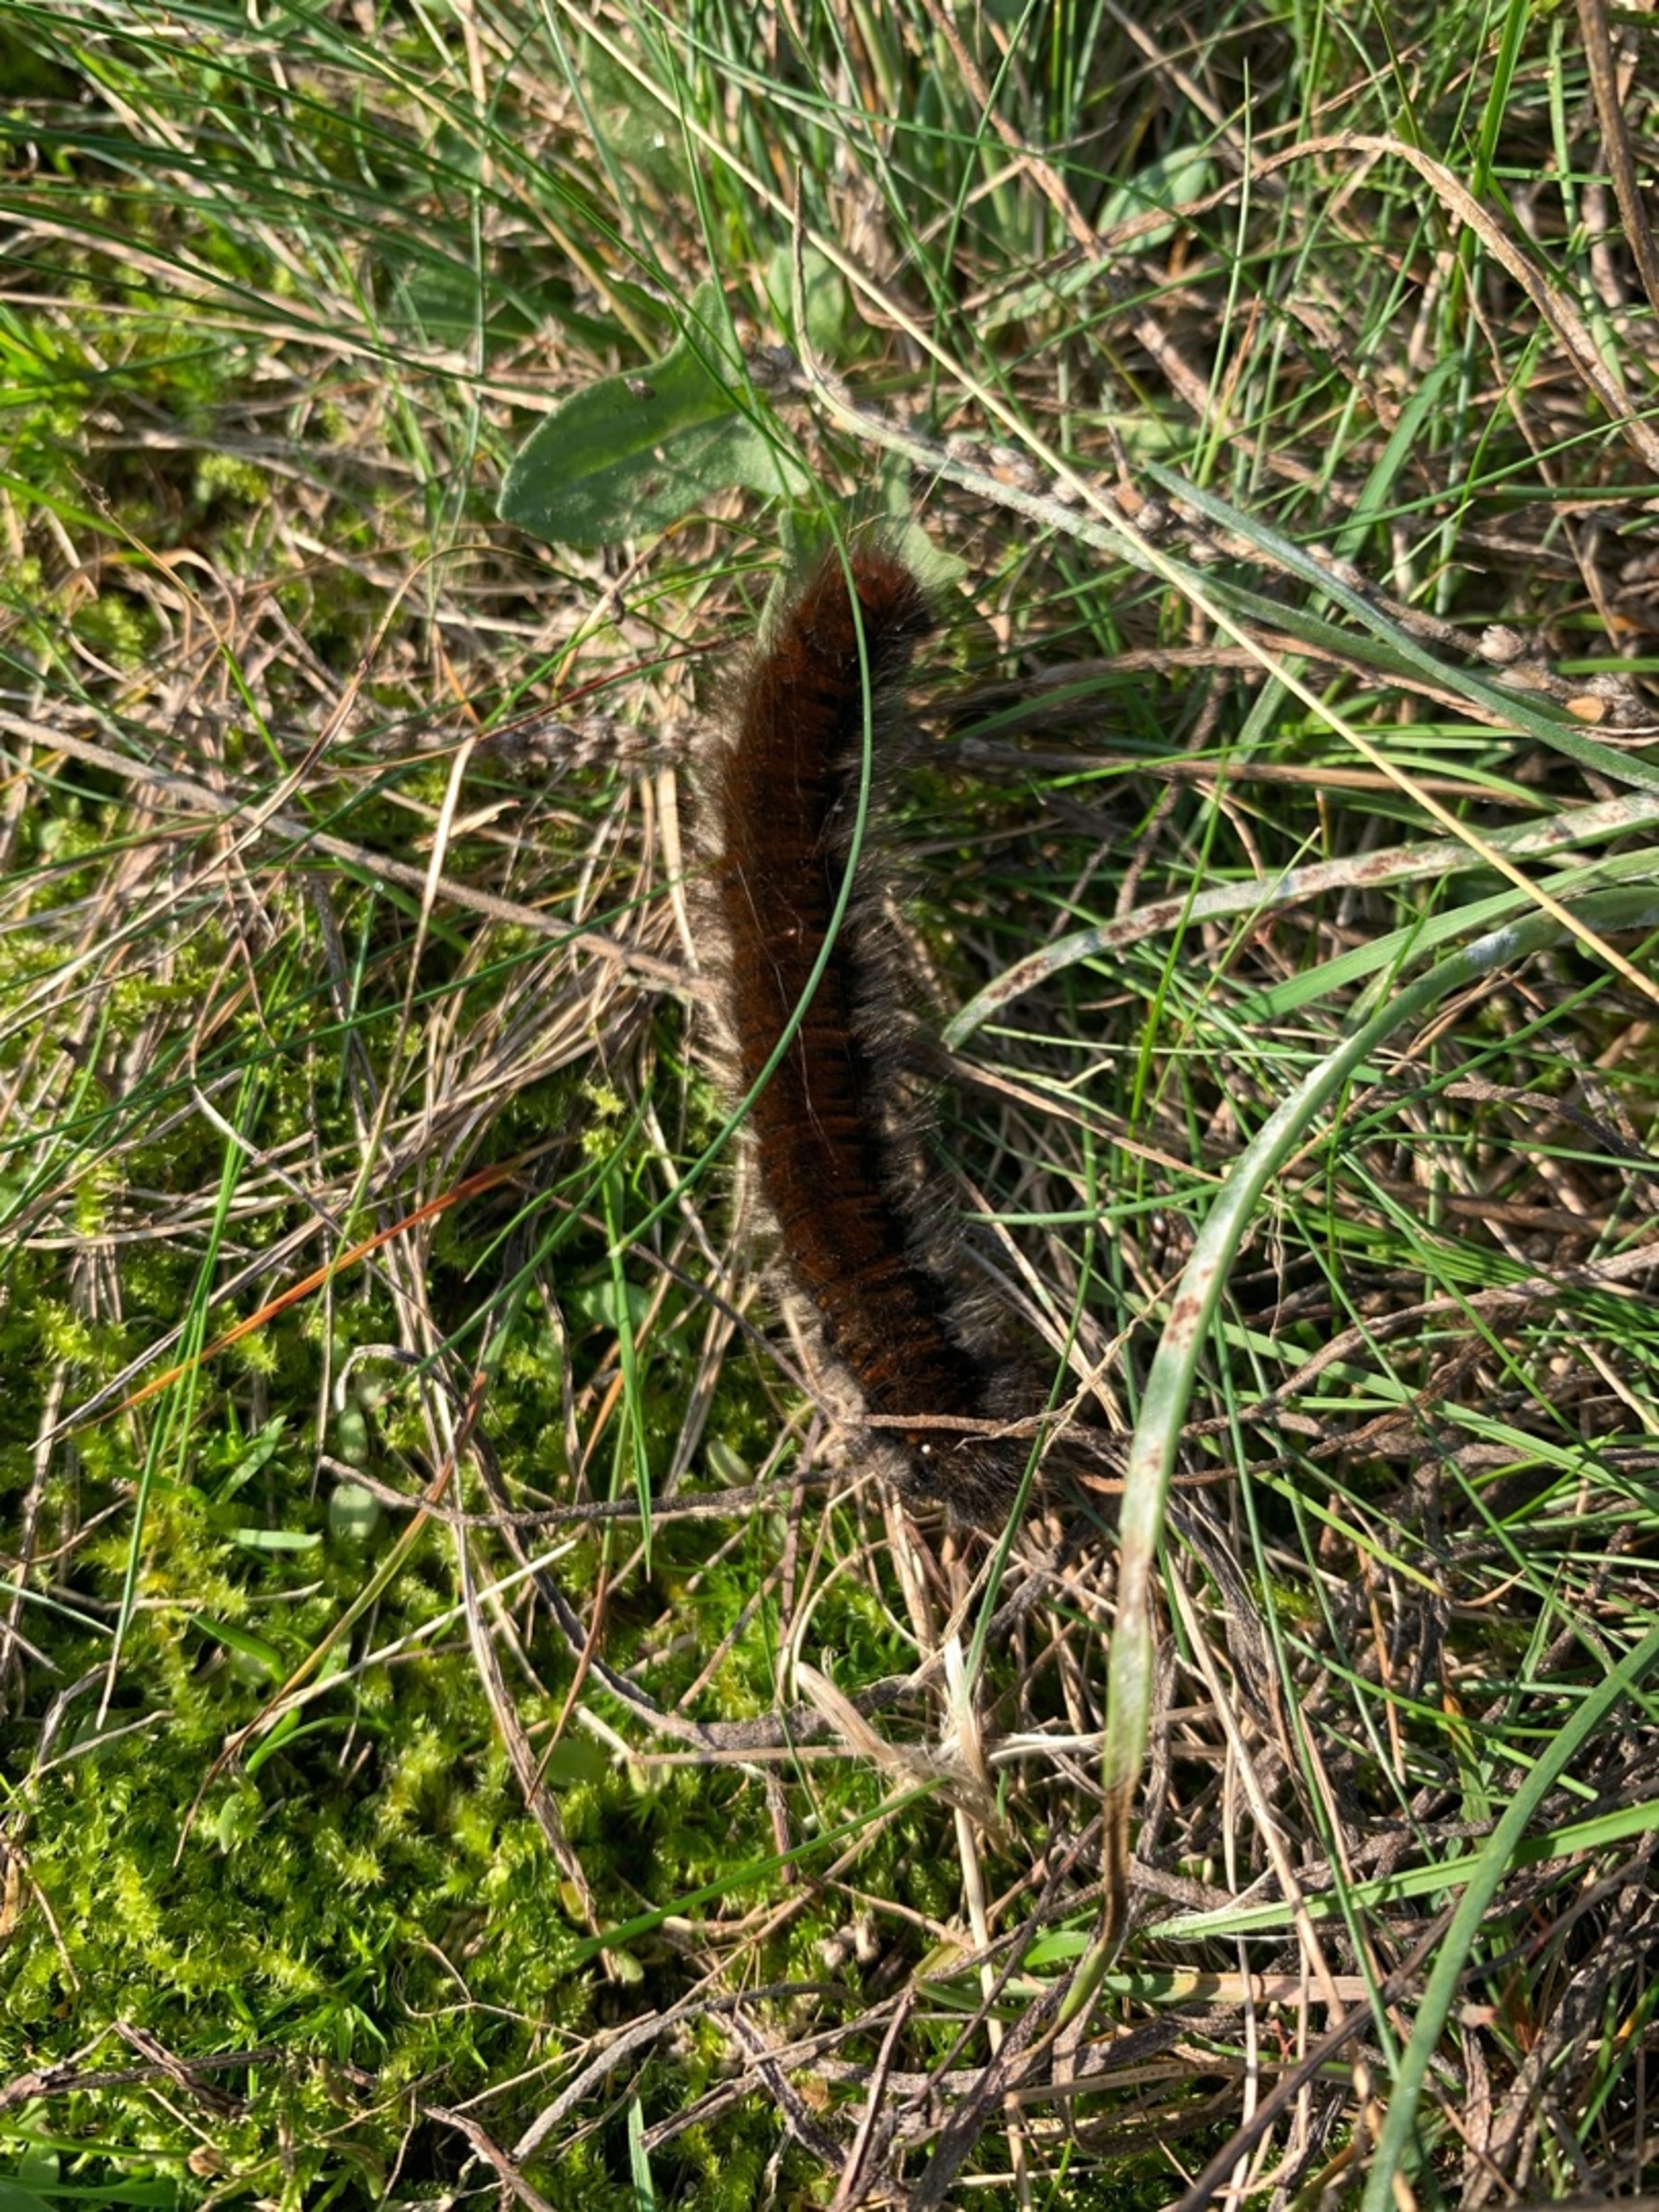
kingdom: Animalia
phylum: Arthropoda
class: Insecta
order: Lepidoptera
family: Lasiocampidae
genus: Macrothylacia
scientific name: Macrothylacia rubi
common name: Brombærspinder
